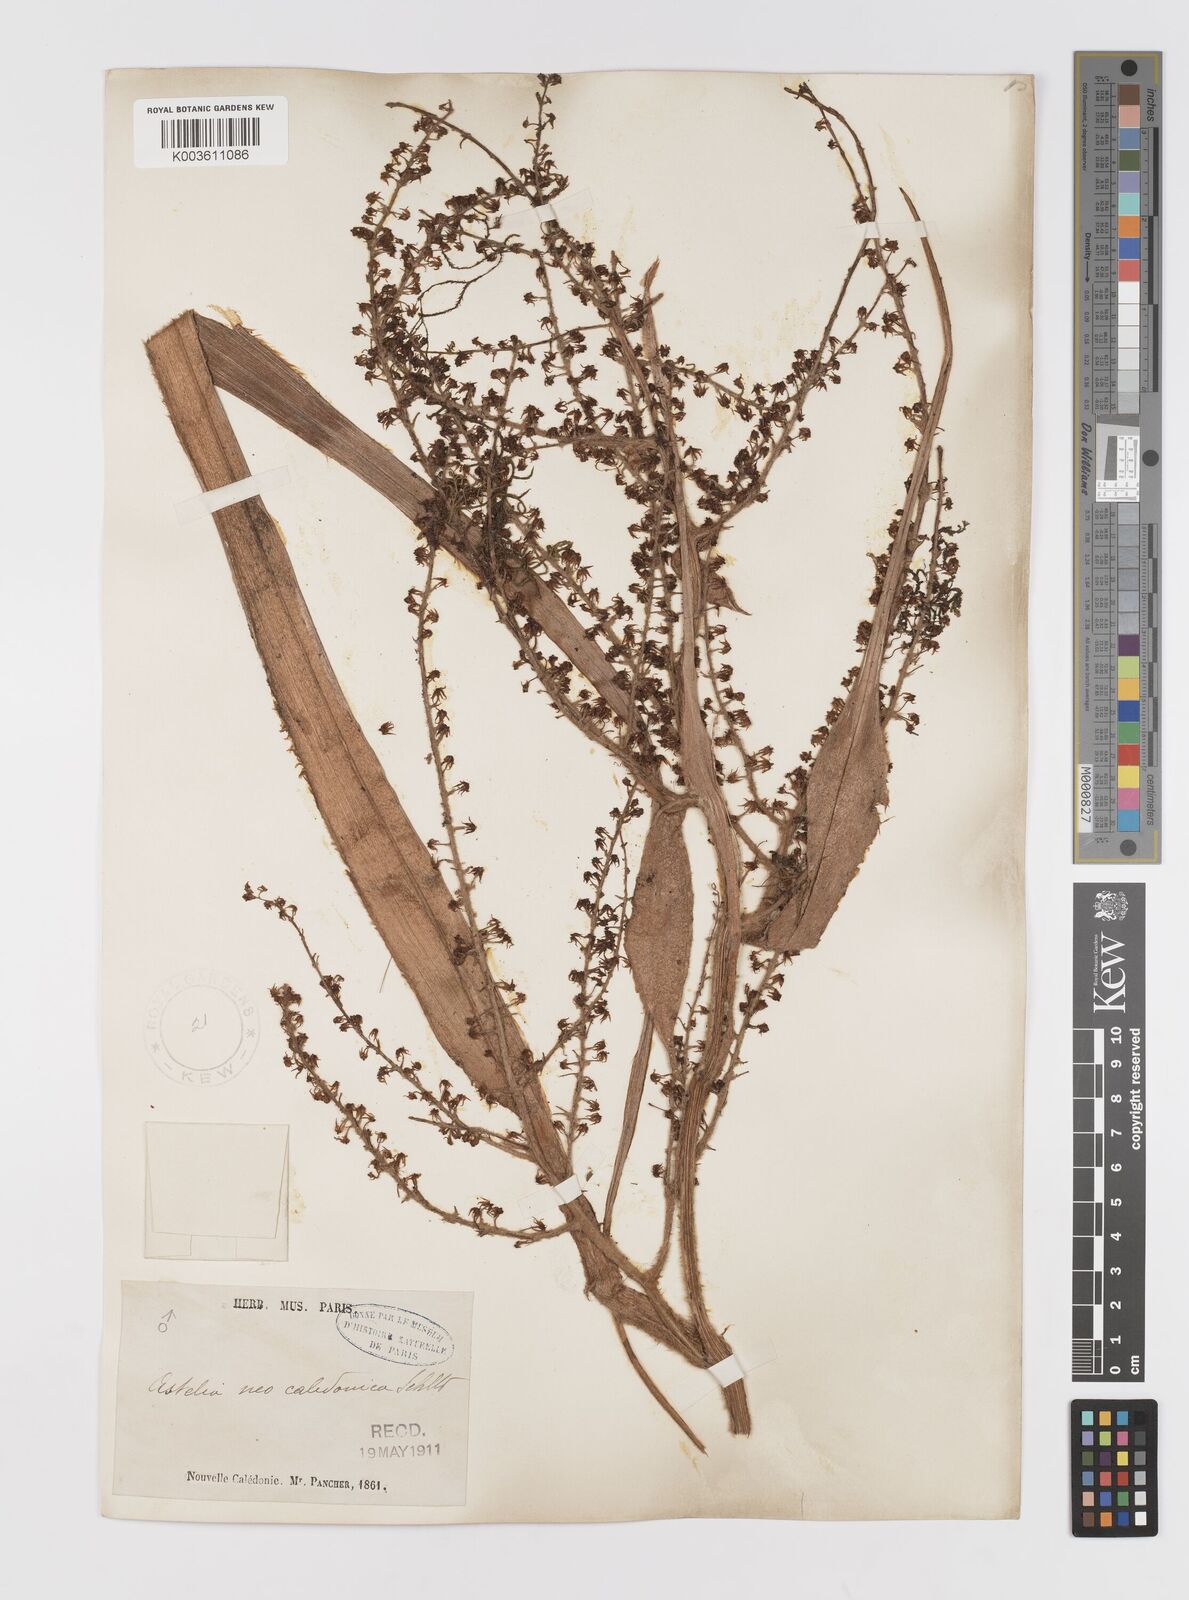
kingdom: Plantae
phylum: Tracheophyta
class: Liliopsida
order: Asparagales
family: Asteliaceae
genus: Astelia
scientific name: Astelia neocaledonica
